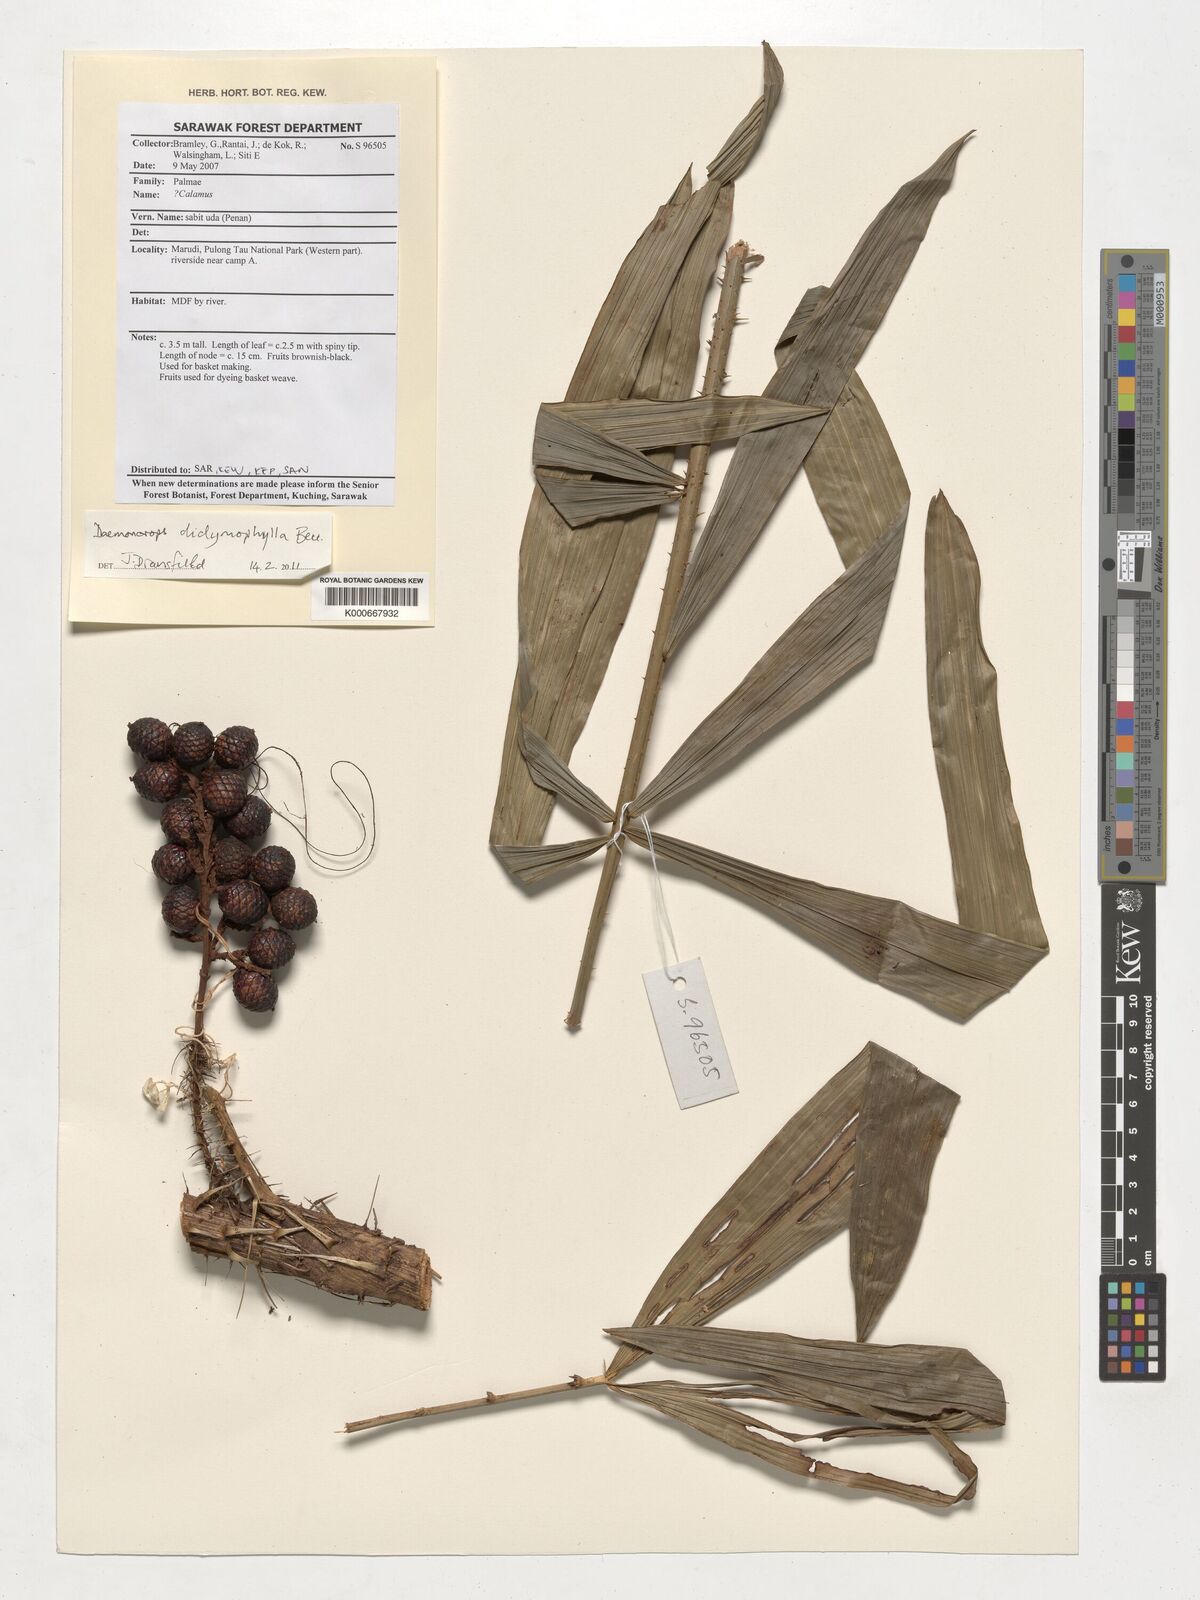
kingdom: Plantae
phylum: Tracheophyta
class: Liliopsida
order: Arecales
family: Arecaceae
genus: Calamus
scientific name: Calamus gracilipes
